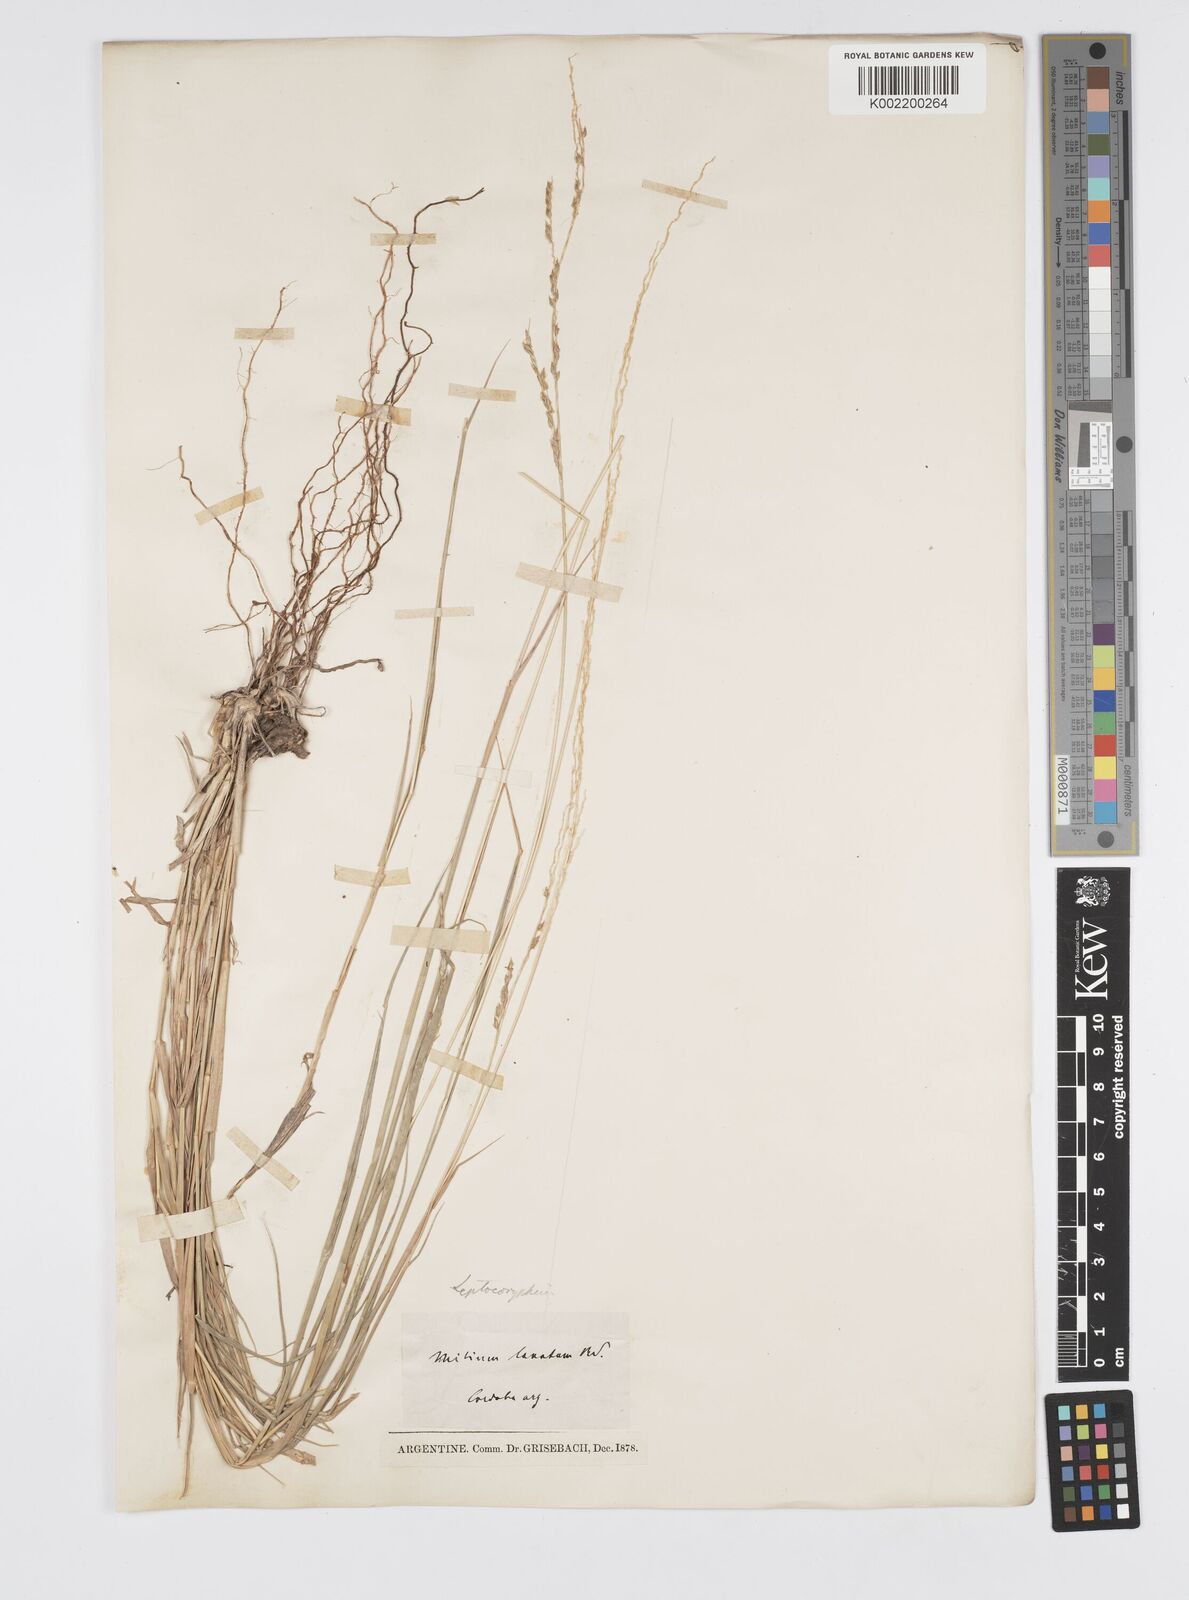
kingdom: Plantae
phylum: Tracheophyta
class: Liliopsida
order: Poales
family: Poaceae
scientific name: Poaceae
